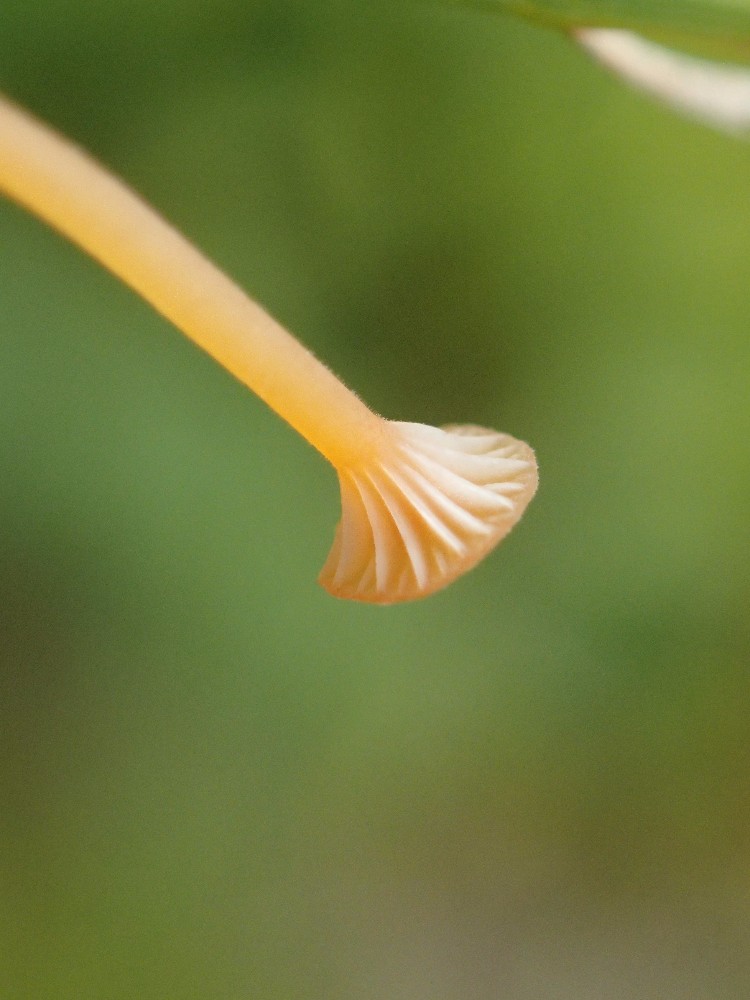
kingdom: Fungi
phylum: Basidiomycota
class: Agaricomycetes
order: Hymenochaetales
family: Rickenellaceae
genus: Rickenella
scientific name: Rickenella fibula
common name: orange mosnavlehat
